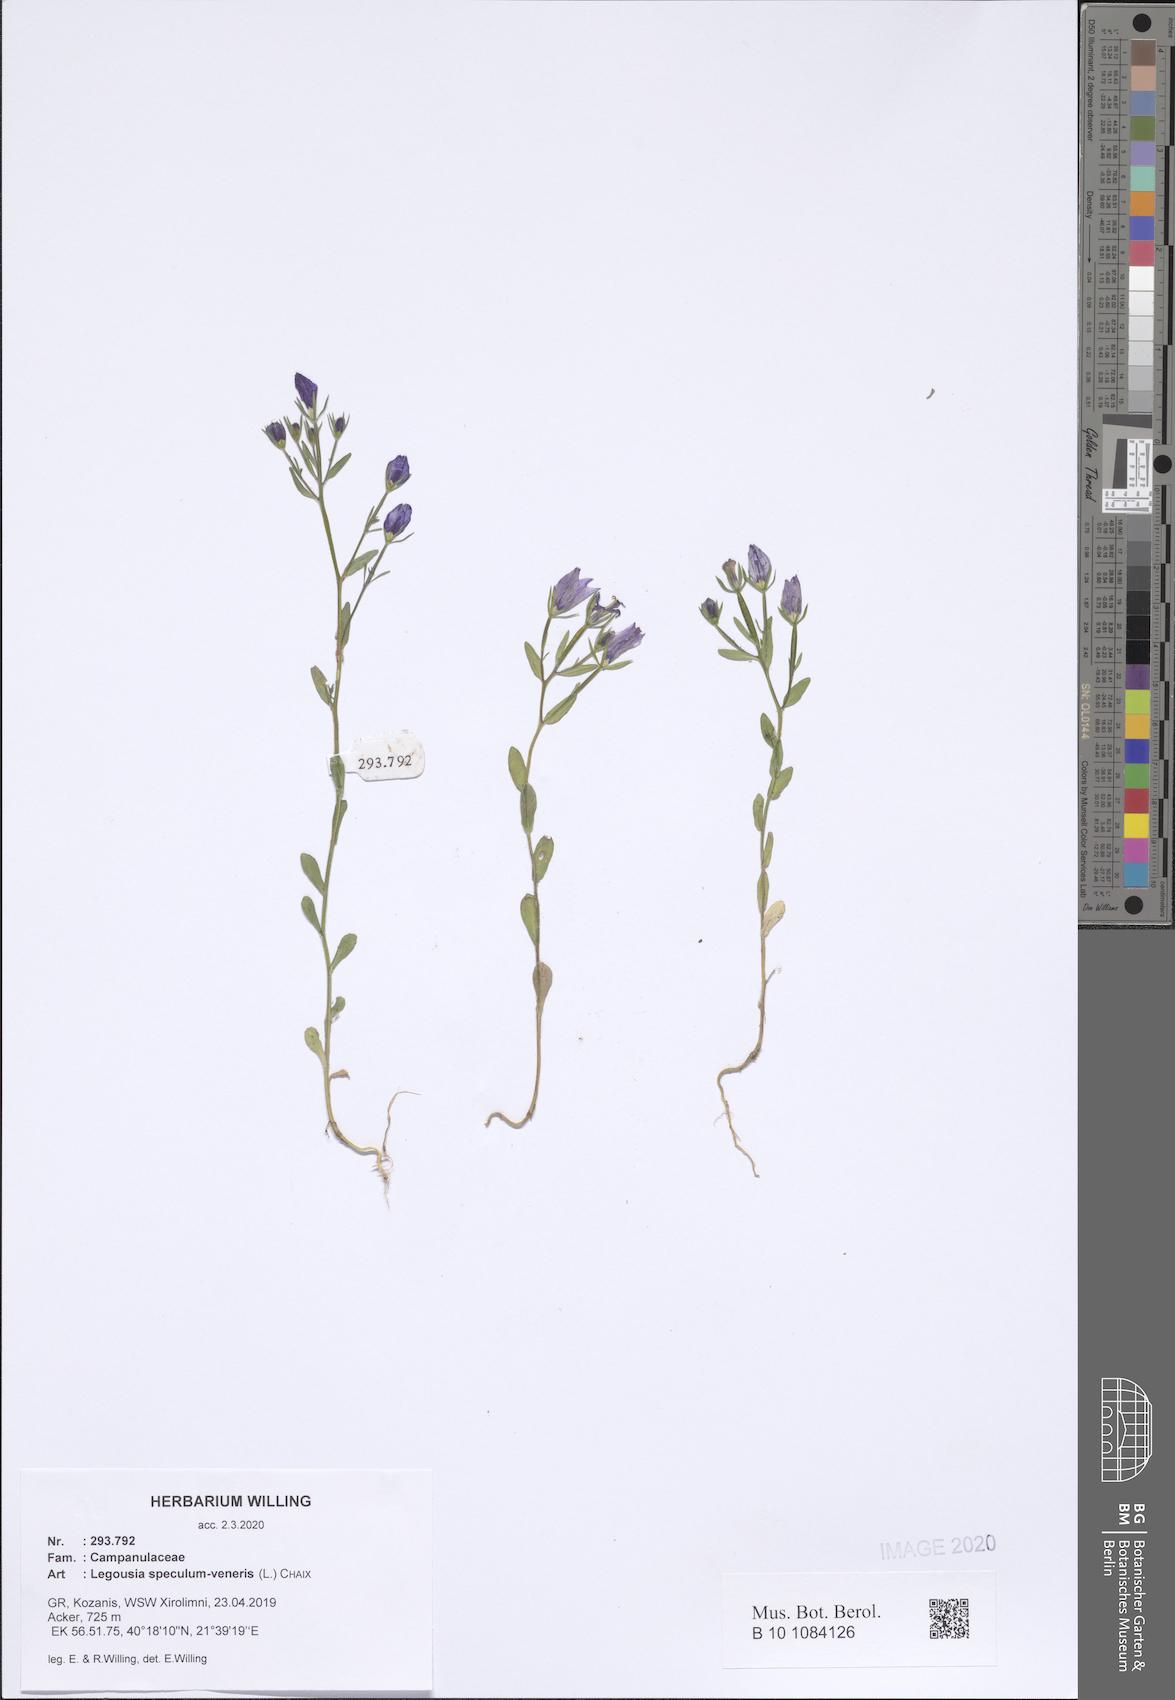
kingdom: Plantae
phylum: Tracheophyta
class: Magnoliopsida
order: Asterales
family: Campanulaceae
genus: Legousia
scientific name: Legousia speculum-veneris
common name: Large venus's-looking-glass
